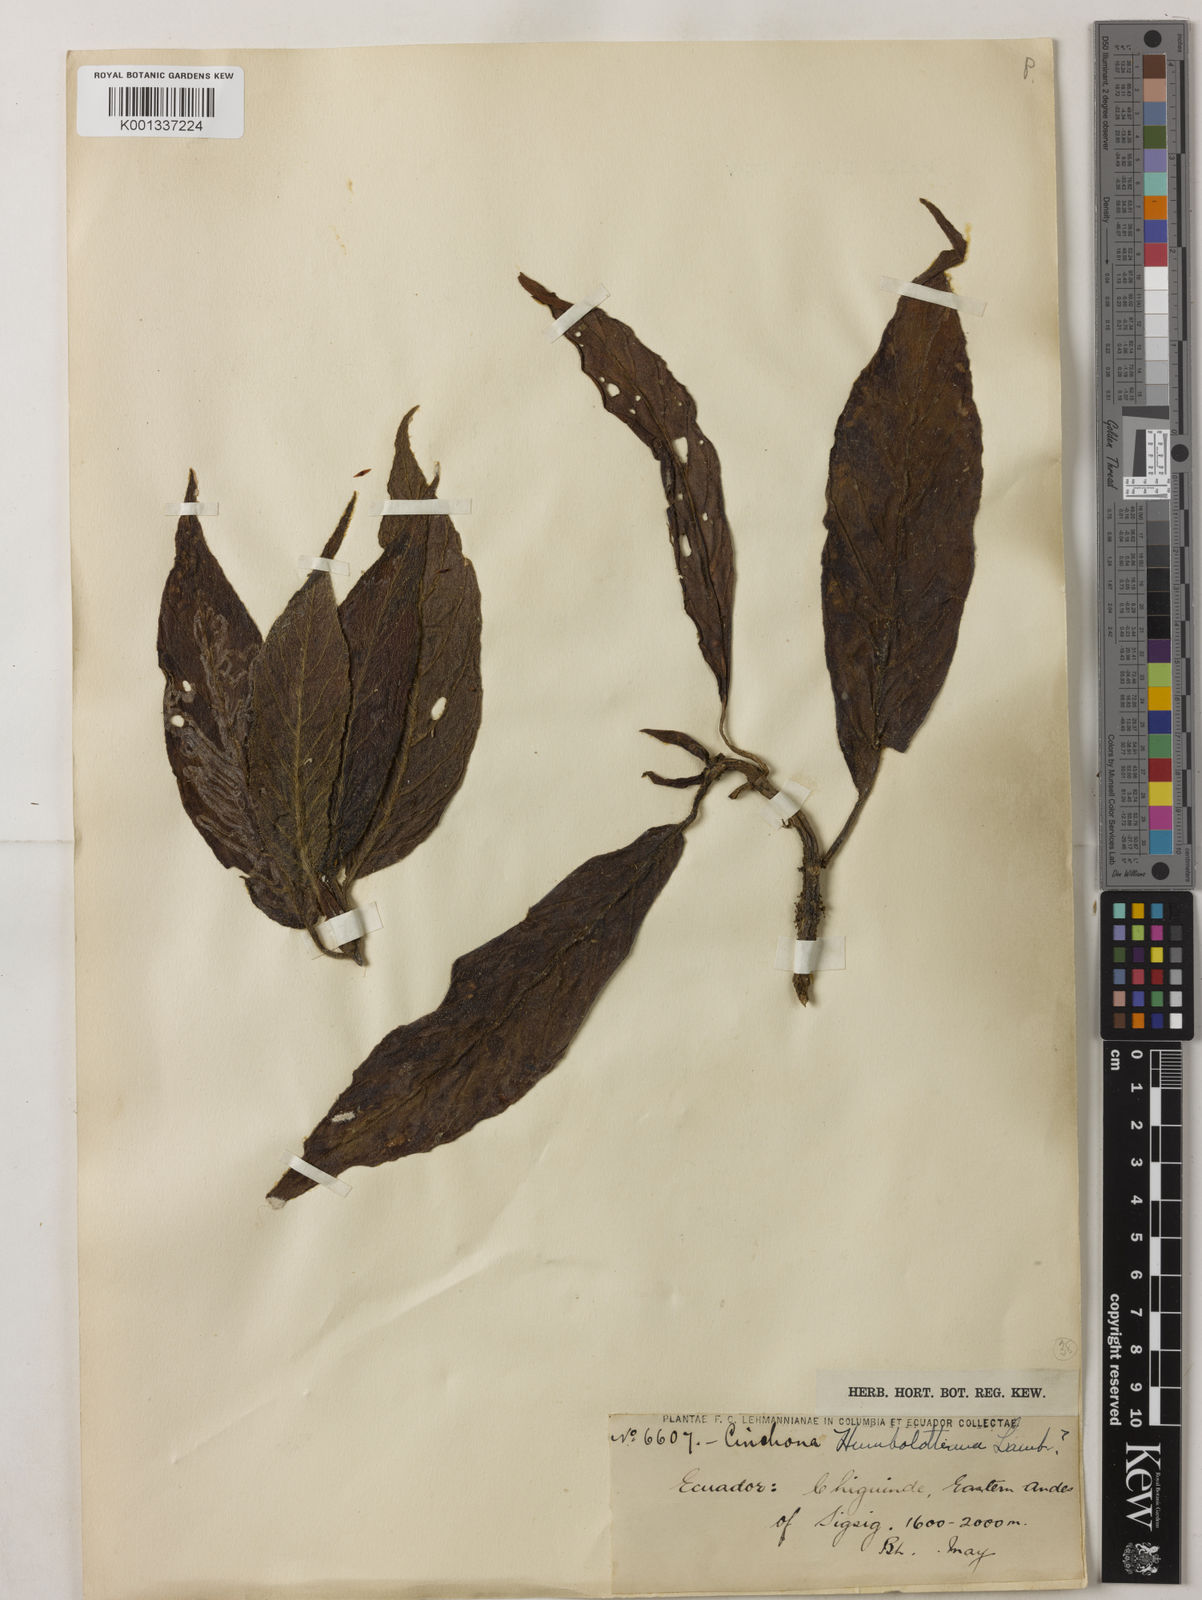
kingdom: Plantae
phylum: Tracheophyta
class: Magnoliopsida
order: Gentianales
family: Rubiaceae
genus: Cinchona
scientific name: Cinchona villosa
